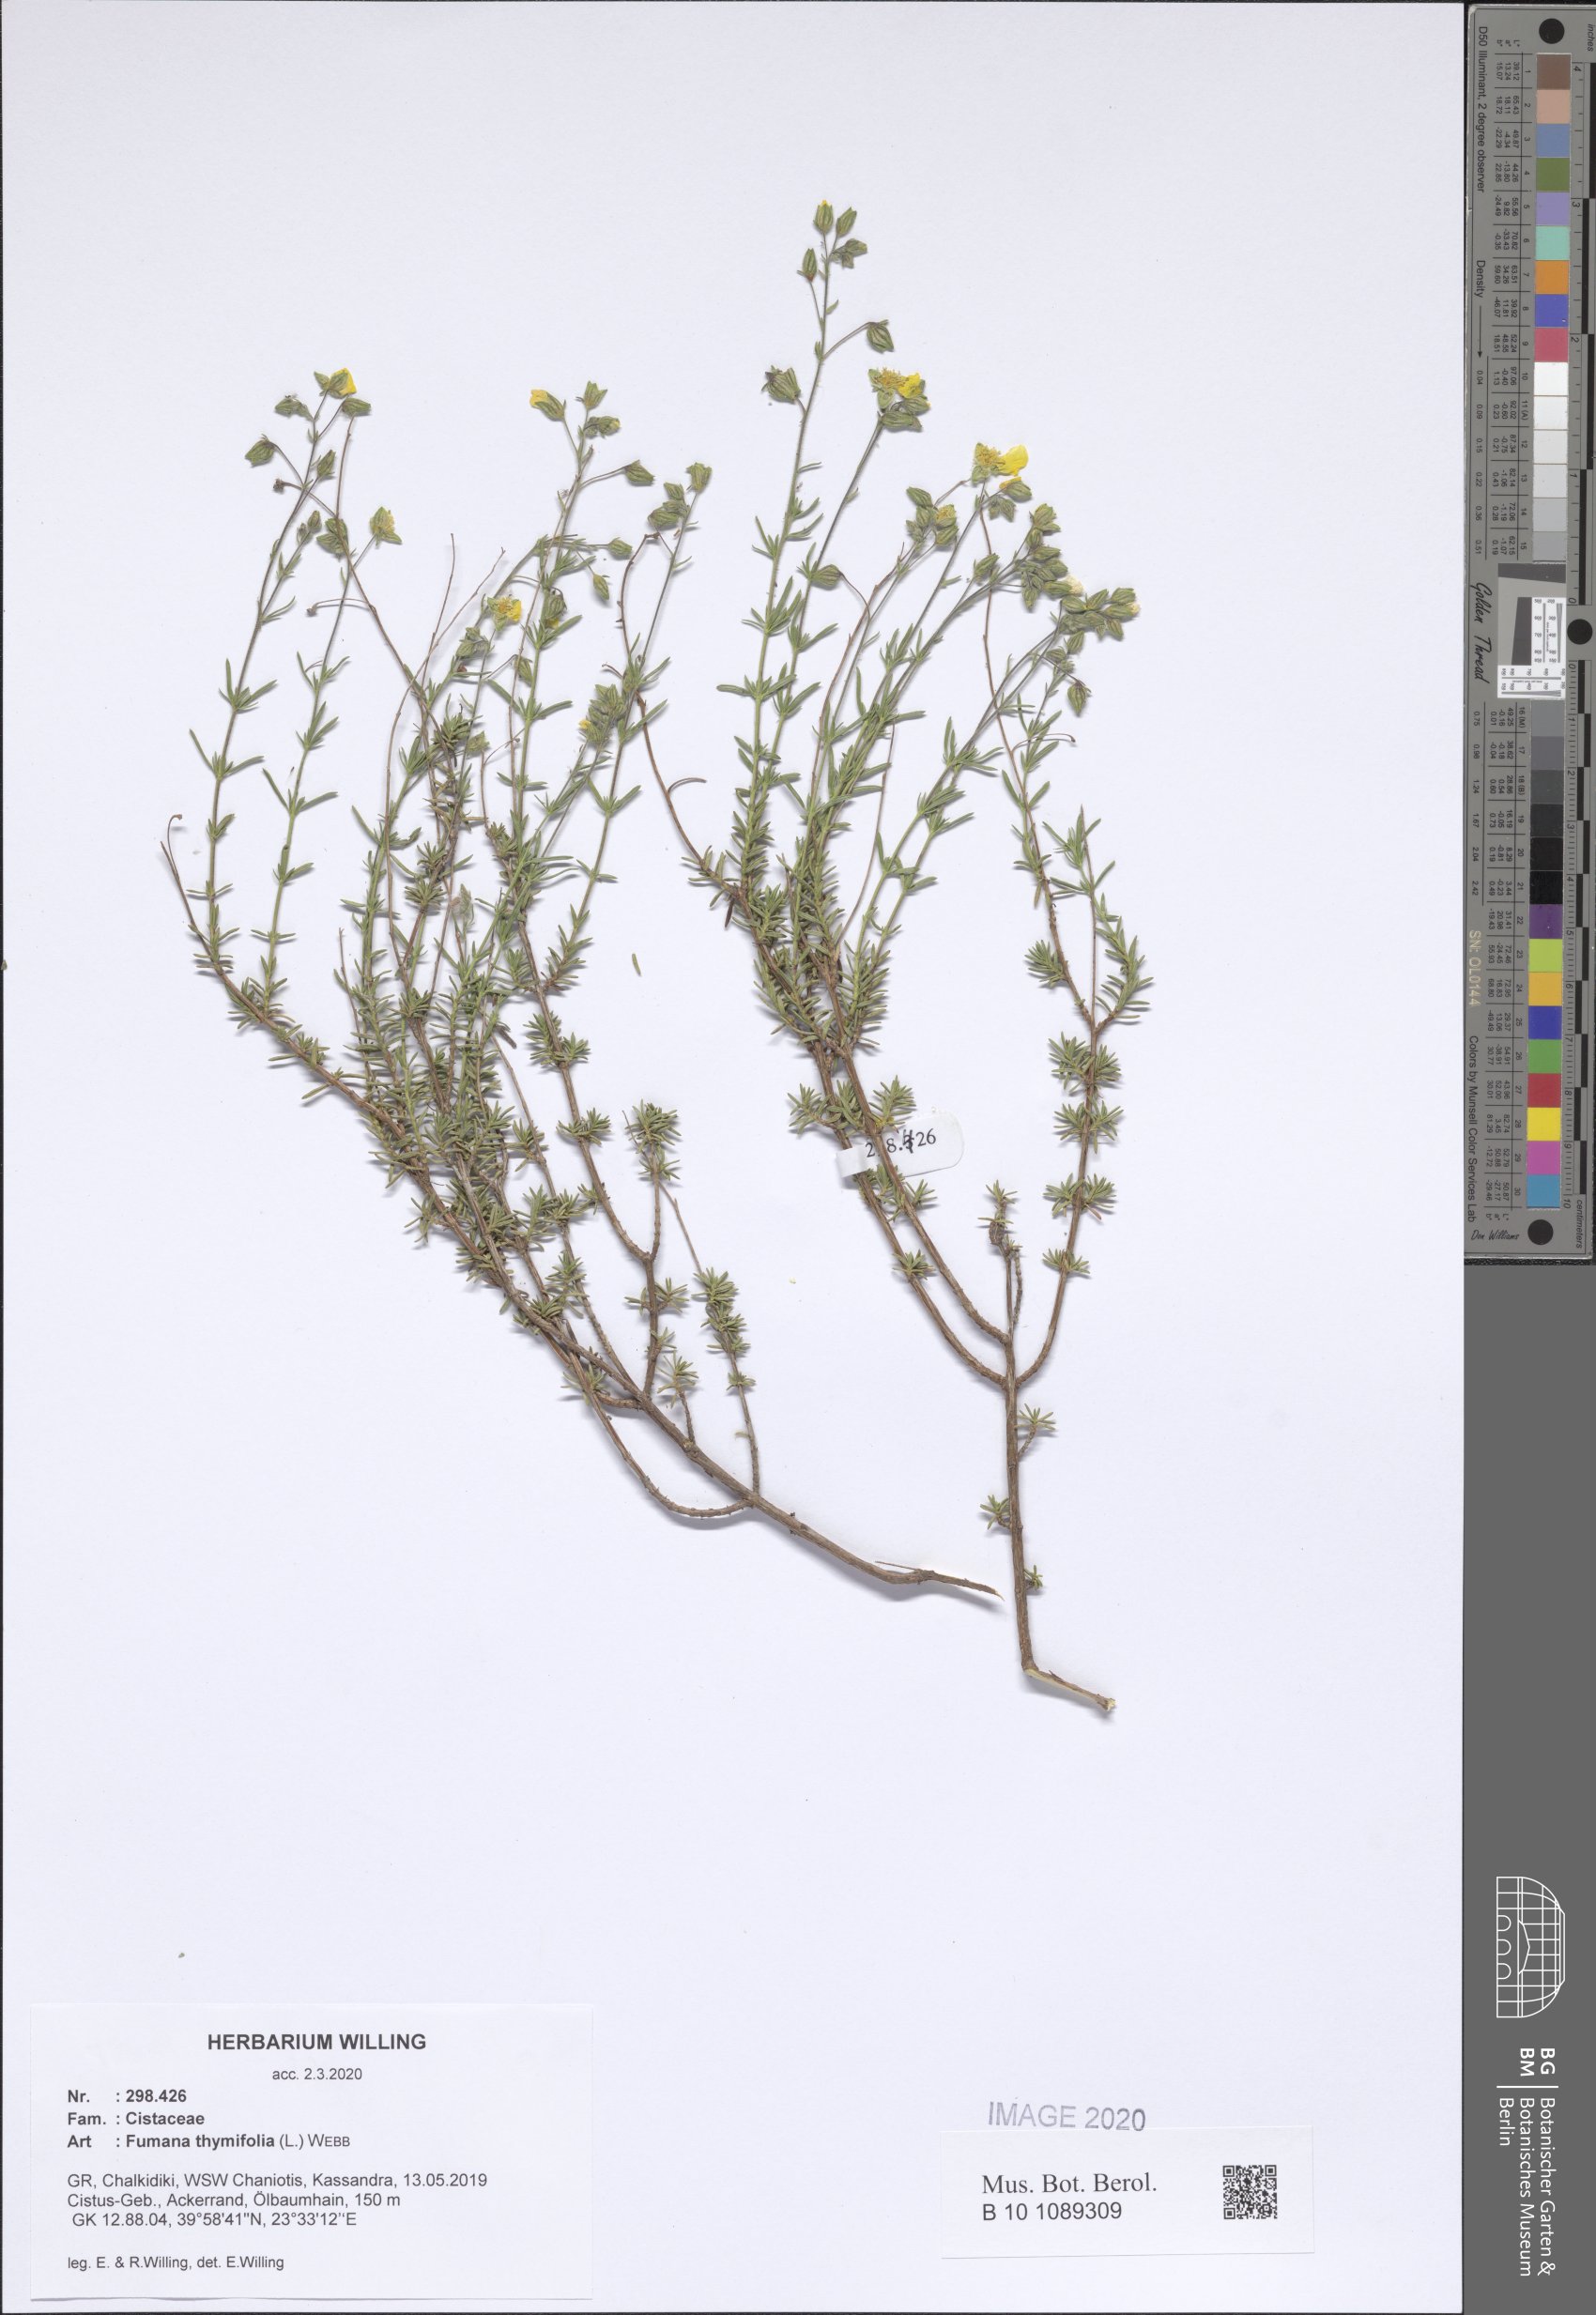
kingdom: Plantae
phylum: Tracheophyta
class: Magnoliopsida
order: Malvales
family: Cistaceae
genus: Fumana
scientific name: Fumana thymifolia
